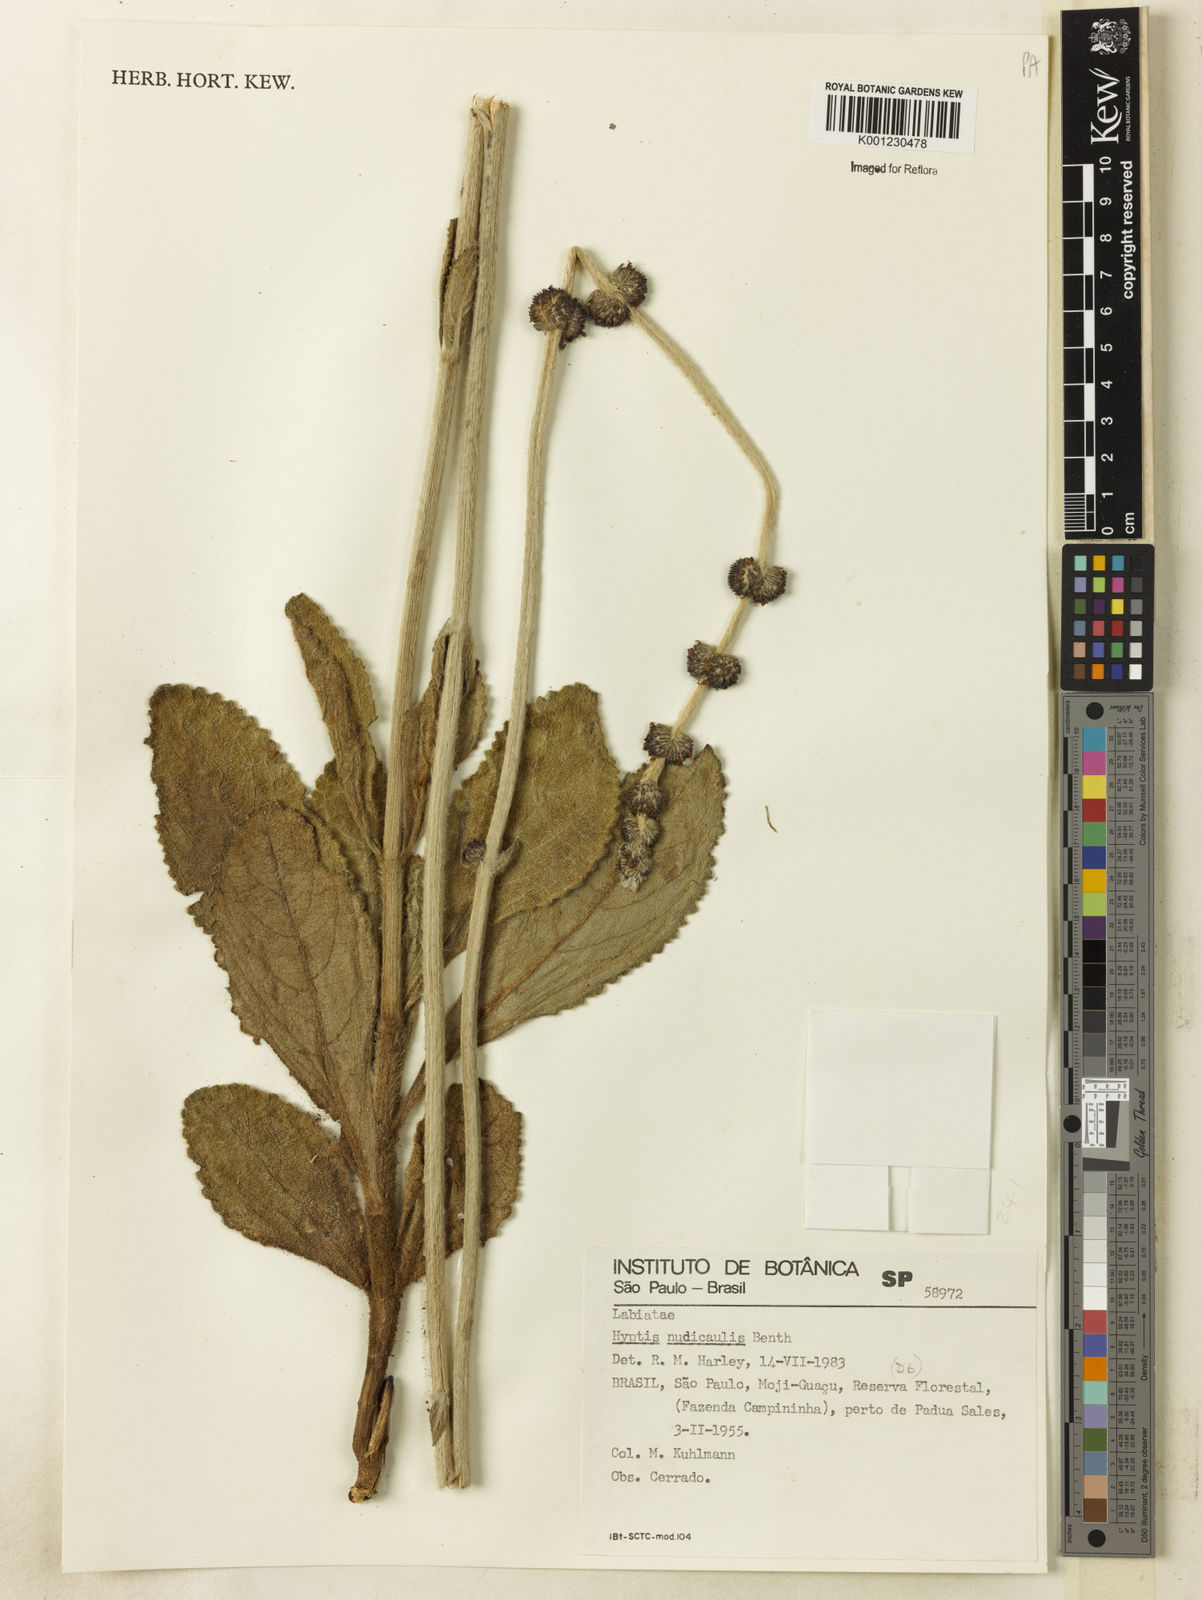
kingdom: Plantae
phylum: Tracheophyta
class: Magnoliopsida
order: Lamiales
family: Lamiaceae
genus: Hyptis
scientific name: Hyptis nudicaulis
